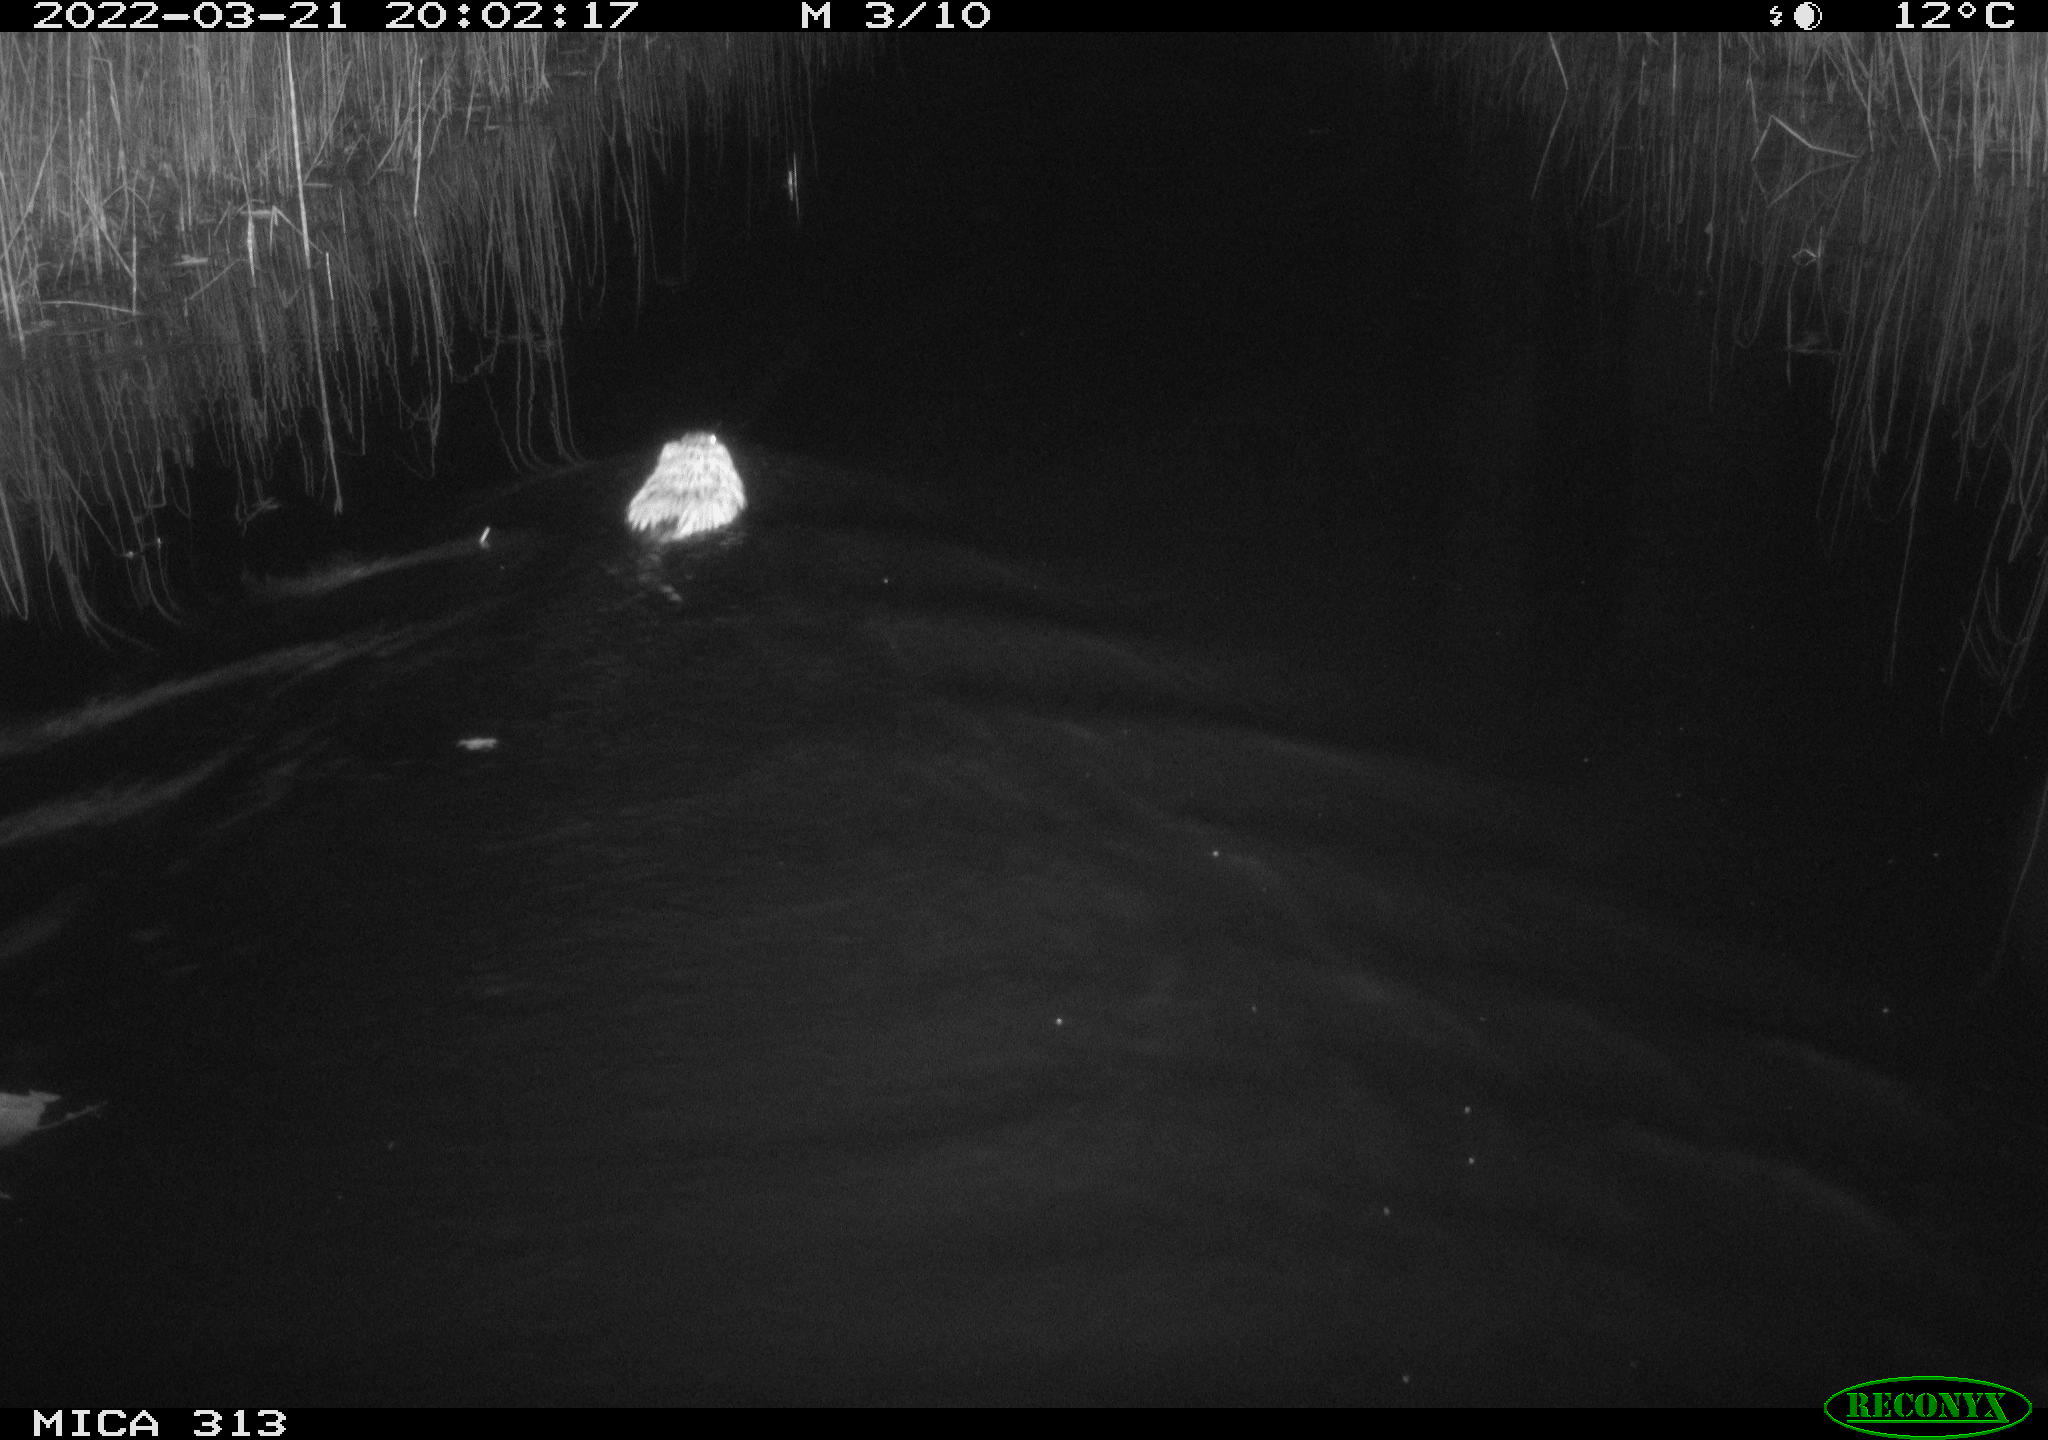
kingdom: Animalia
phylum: Chordata
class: Mammalia
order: Rodentia
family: Cricetidae
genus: Ondatra
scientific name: Ondatra zibethicus
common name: Muskrat
